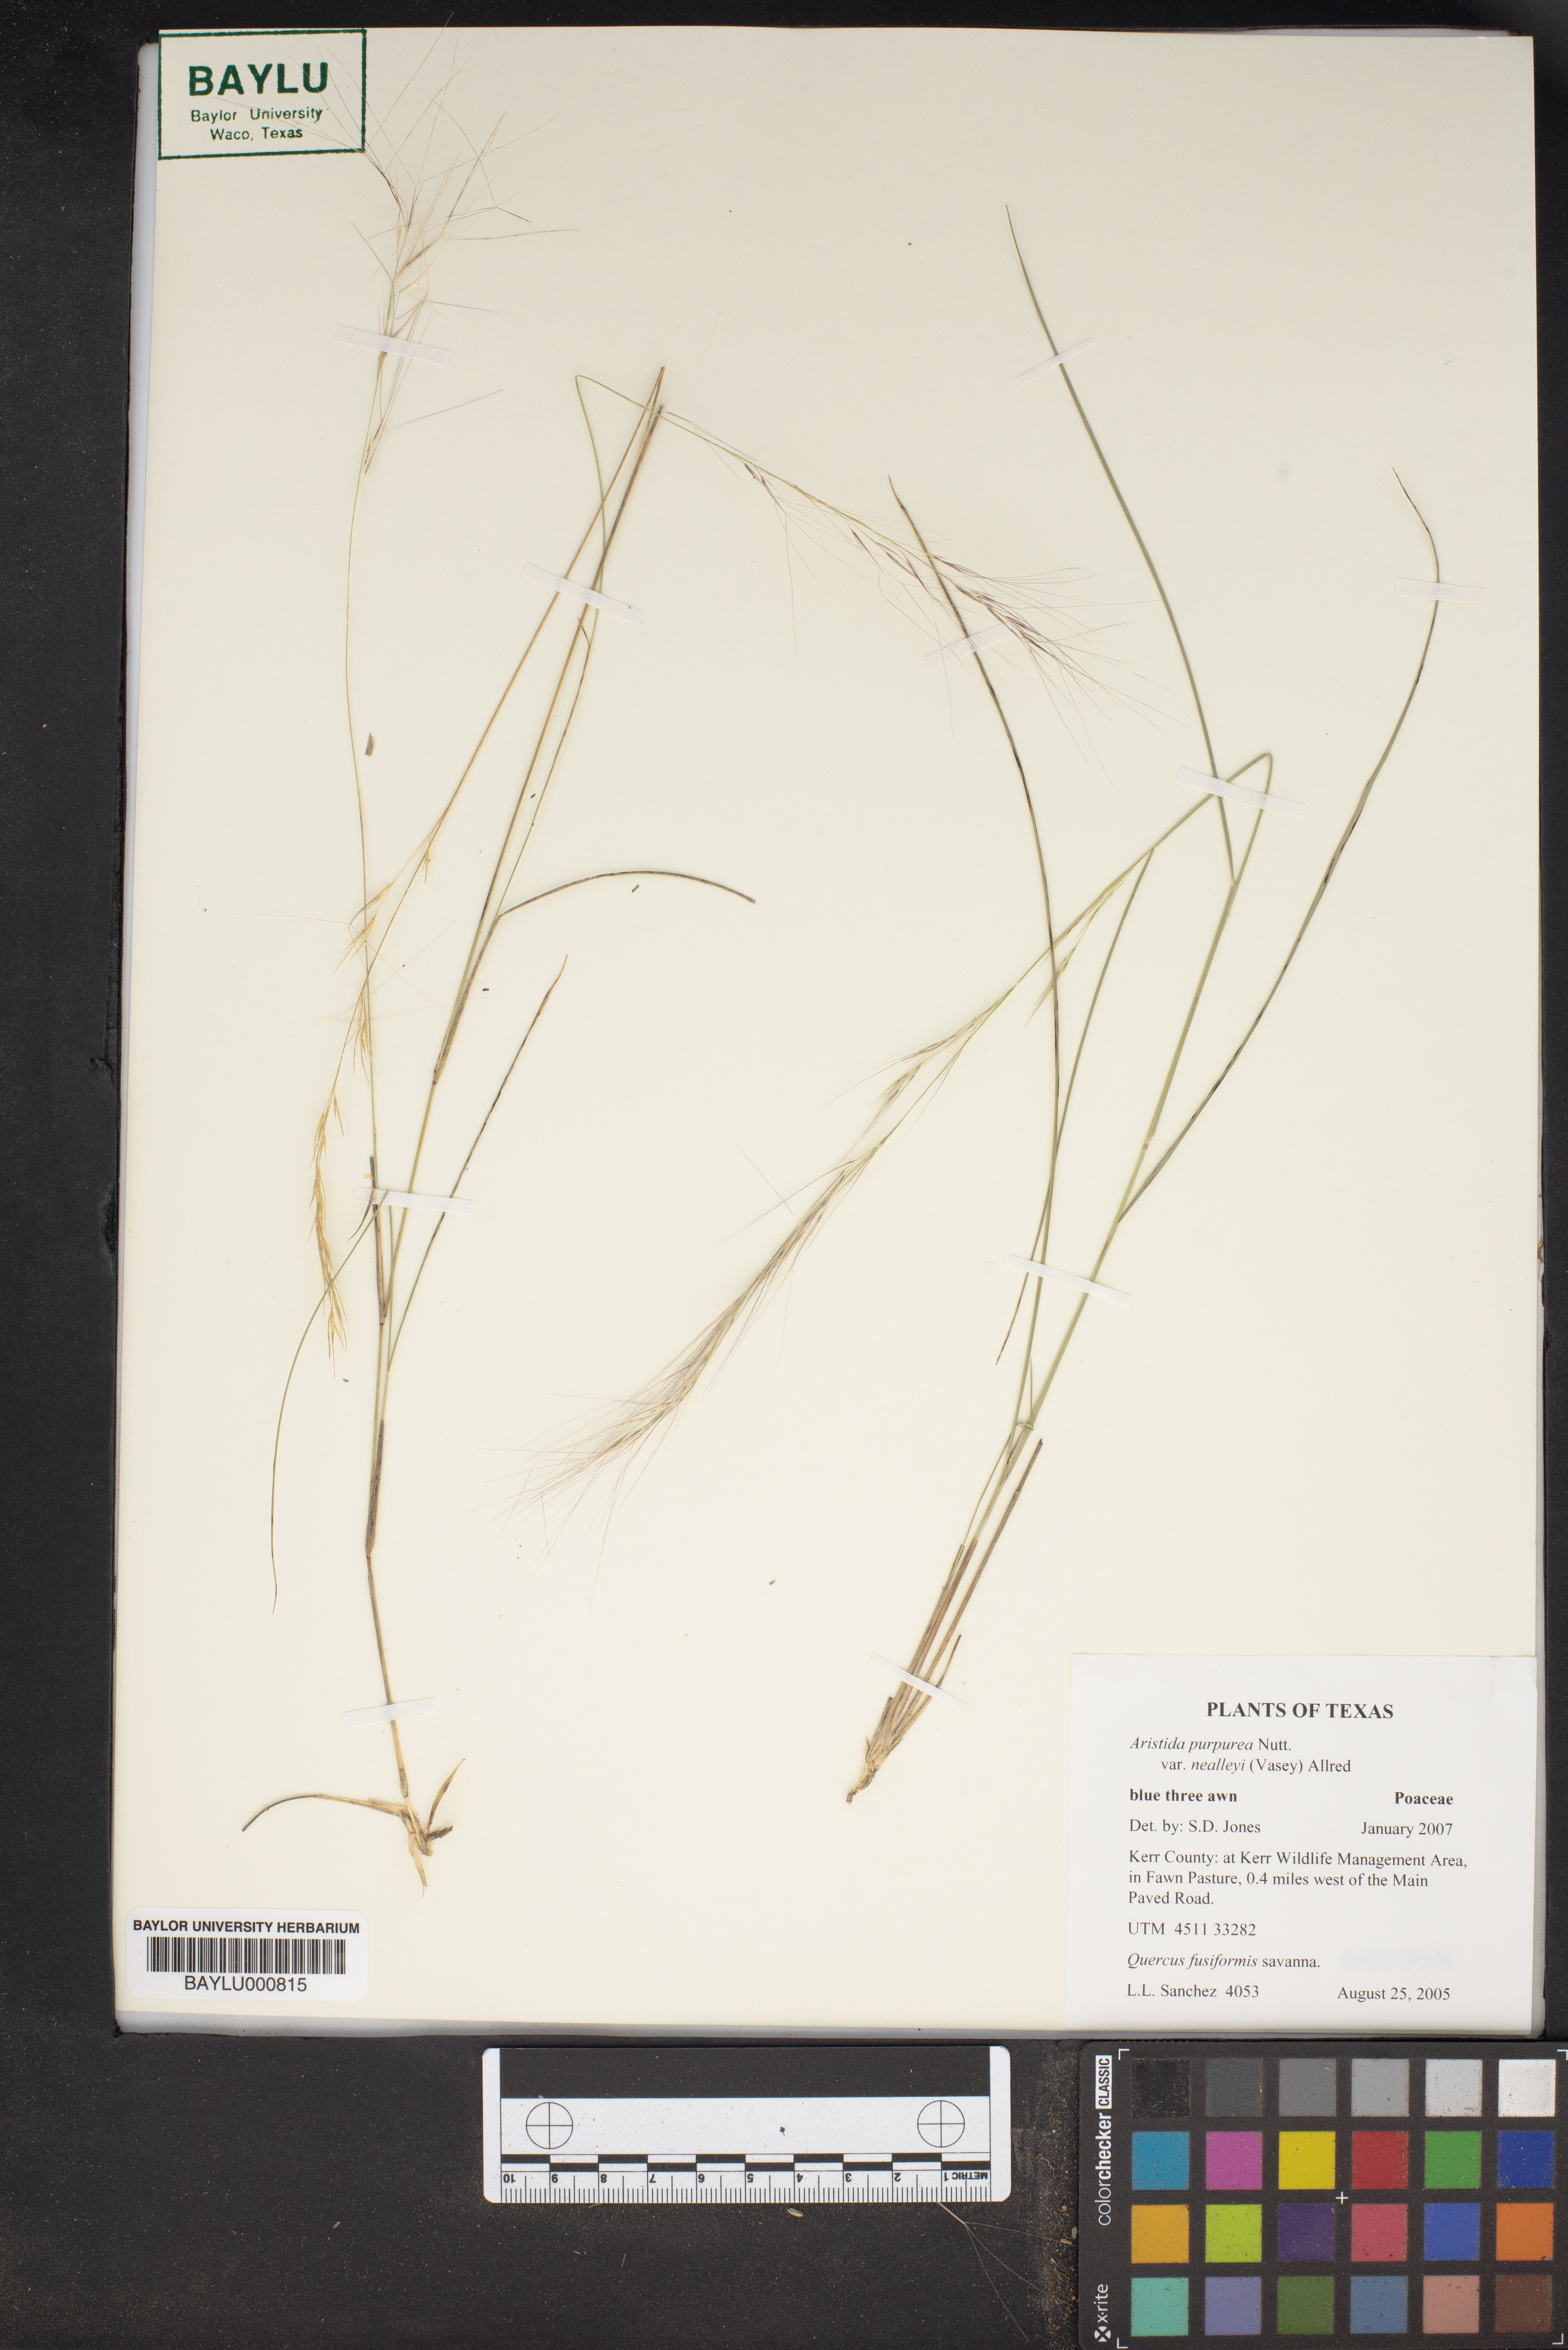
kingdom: Plantae
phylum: Tracheophyta
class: Magnoliopsida
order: Fagales
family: Fagaceae
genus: Quercus
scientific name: Quercus fusiformis
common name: Texas live oak
